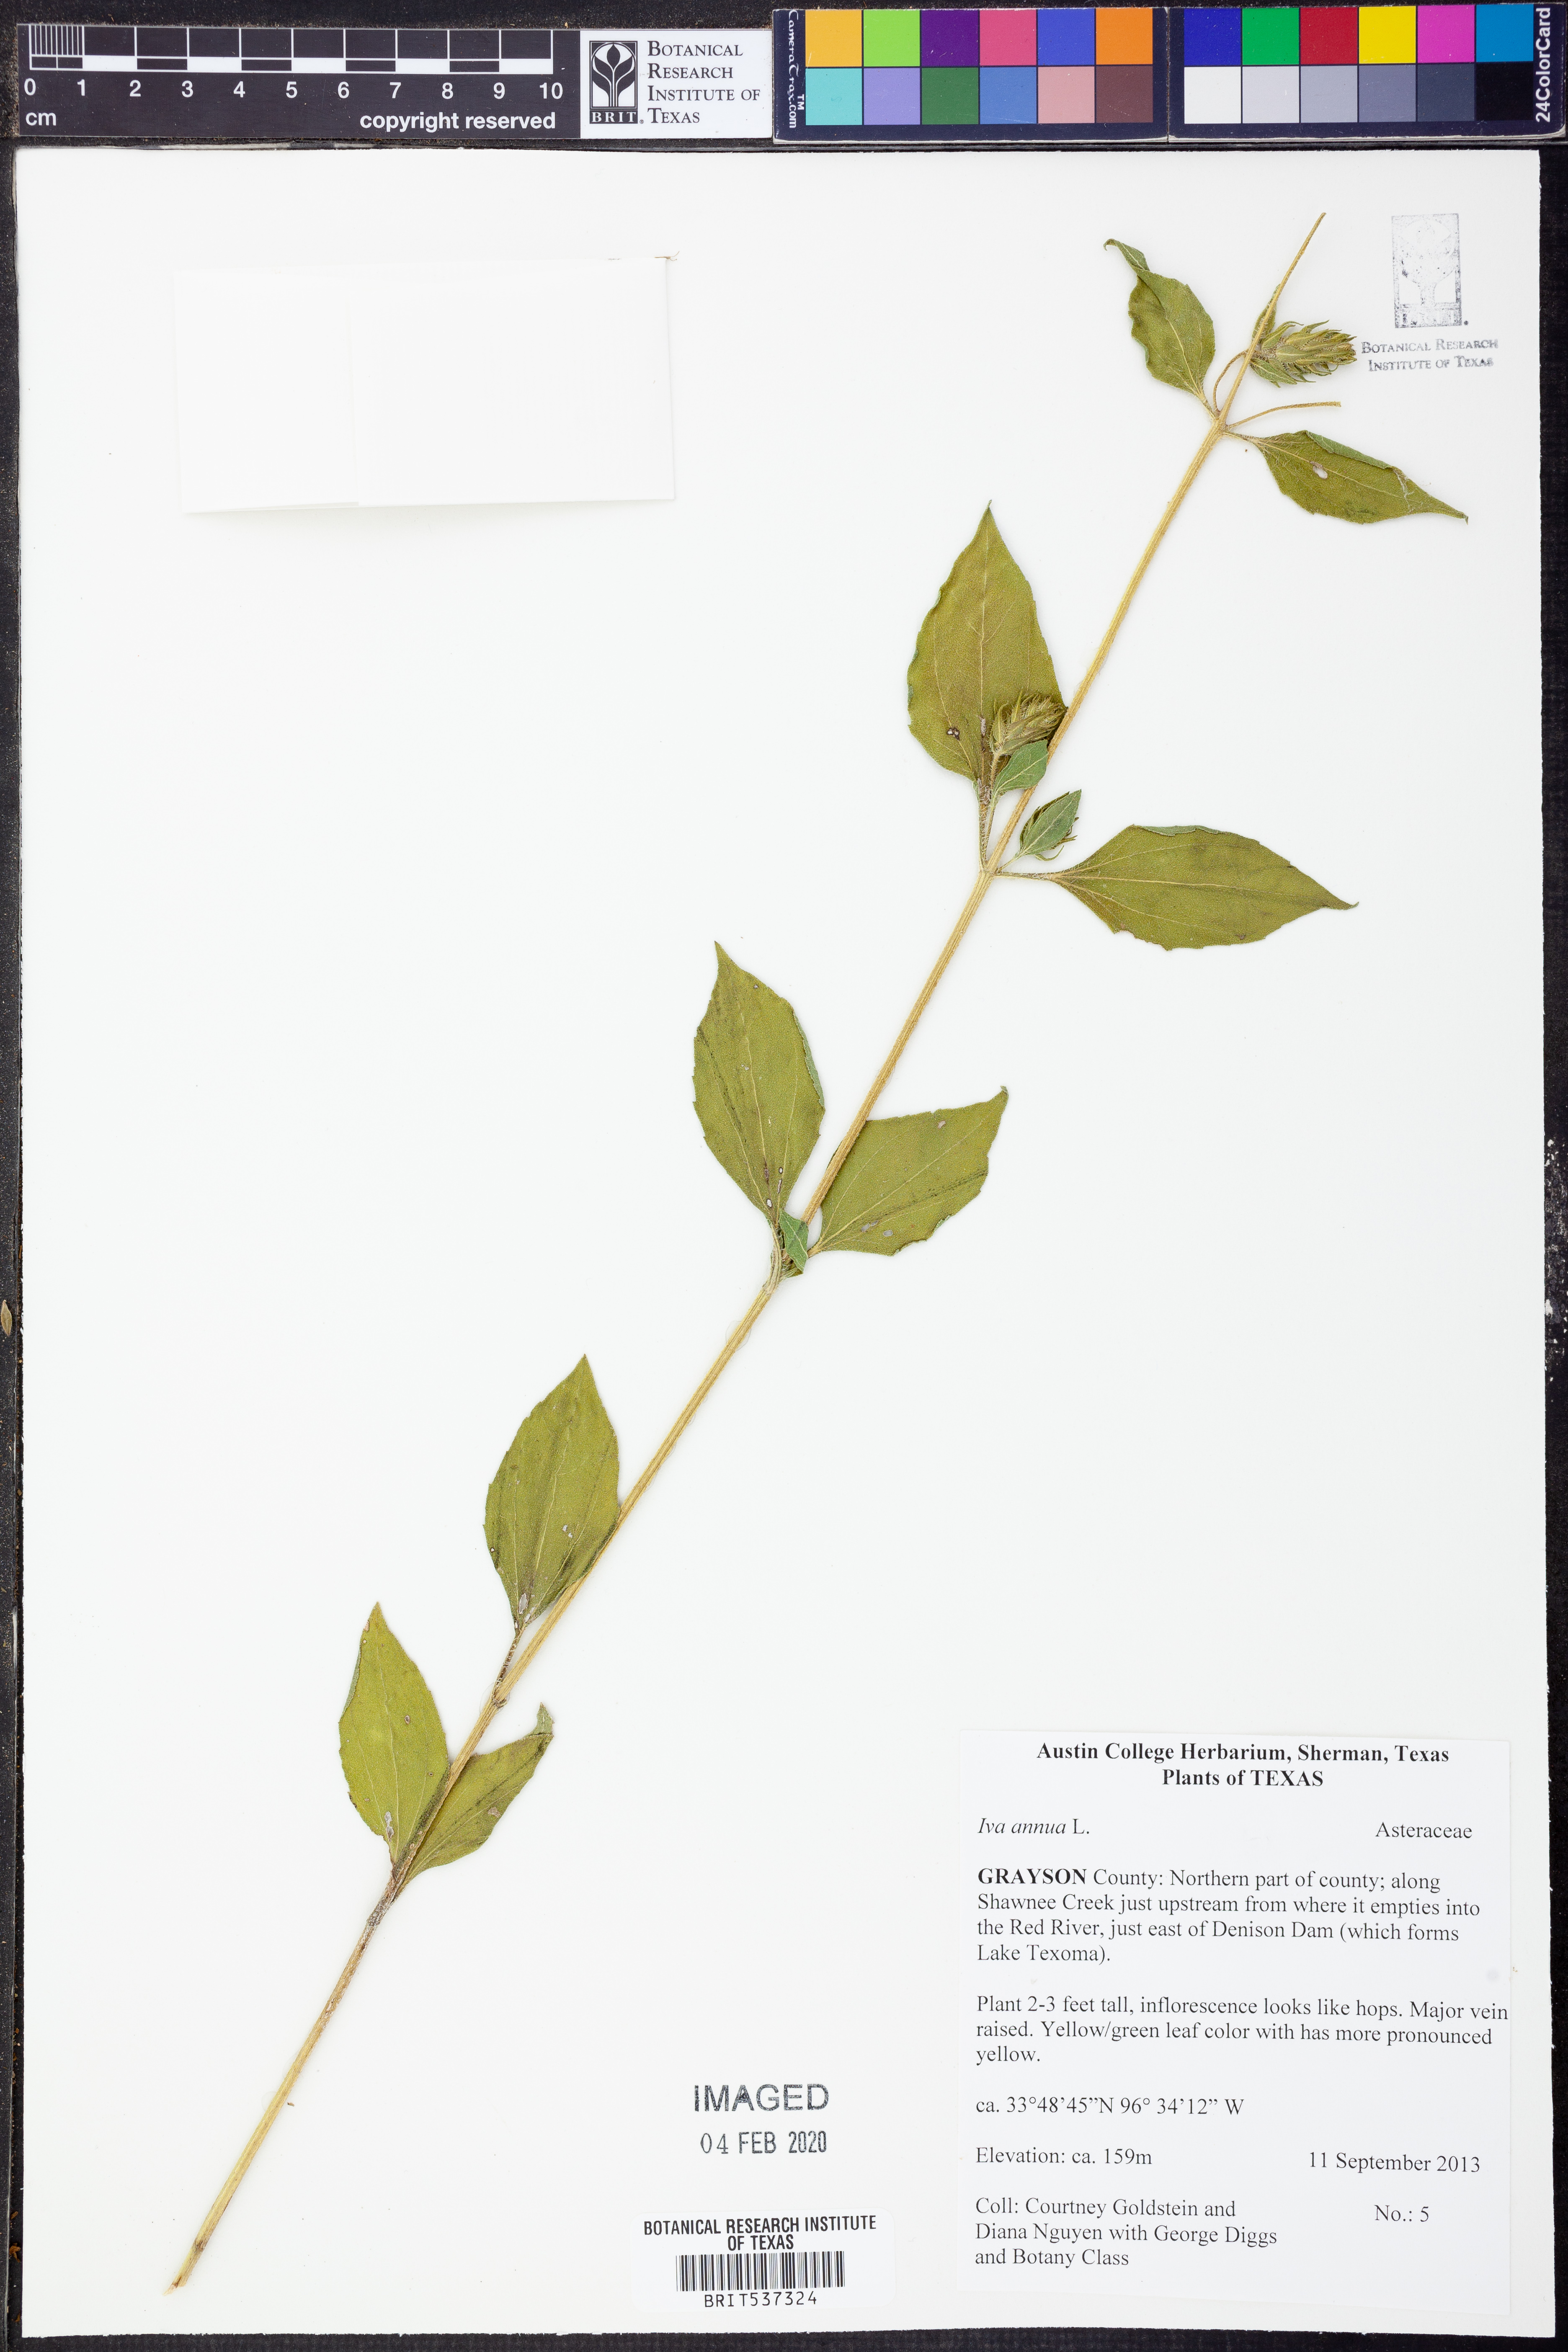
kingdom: Plantae
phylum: Tracheophyta
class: Magnoliopsida
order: Asterales
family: Asteraceae
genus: Iva
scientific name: Iva annua
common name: Marsh-elder
